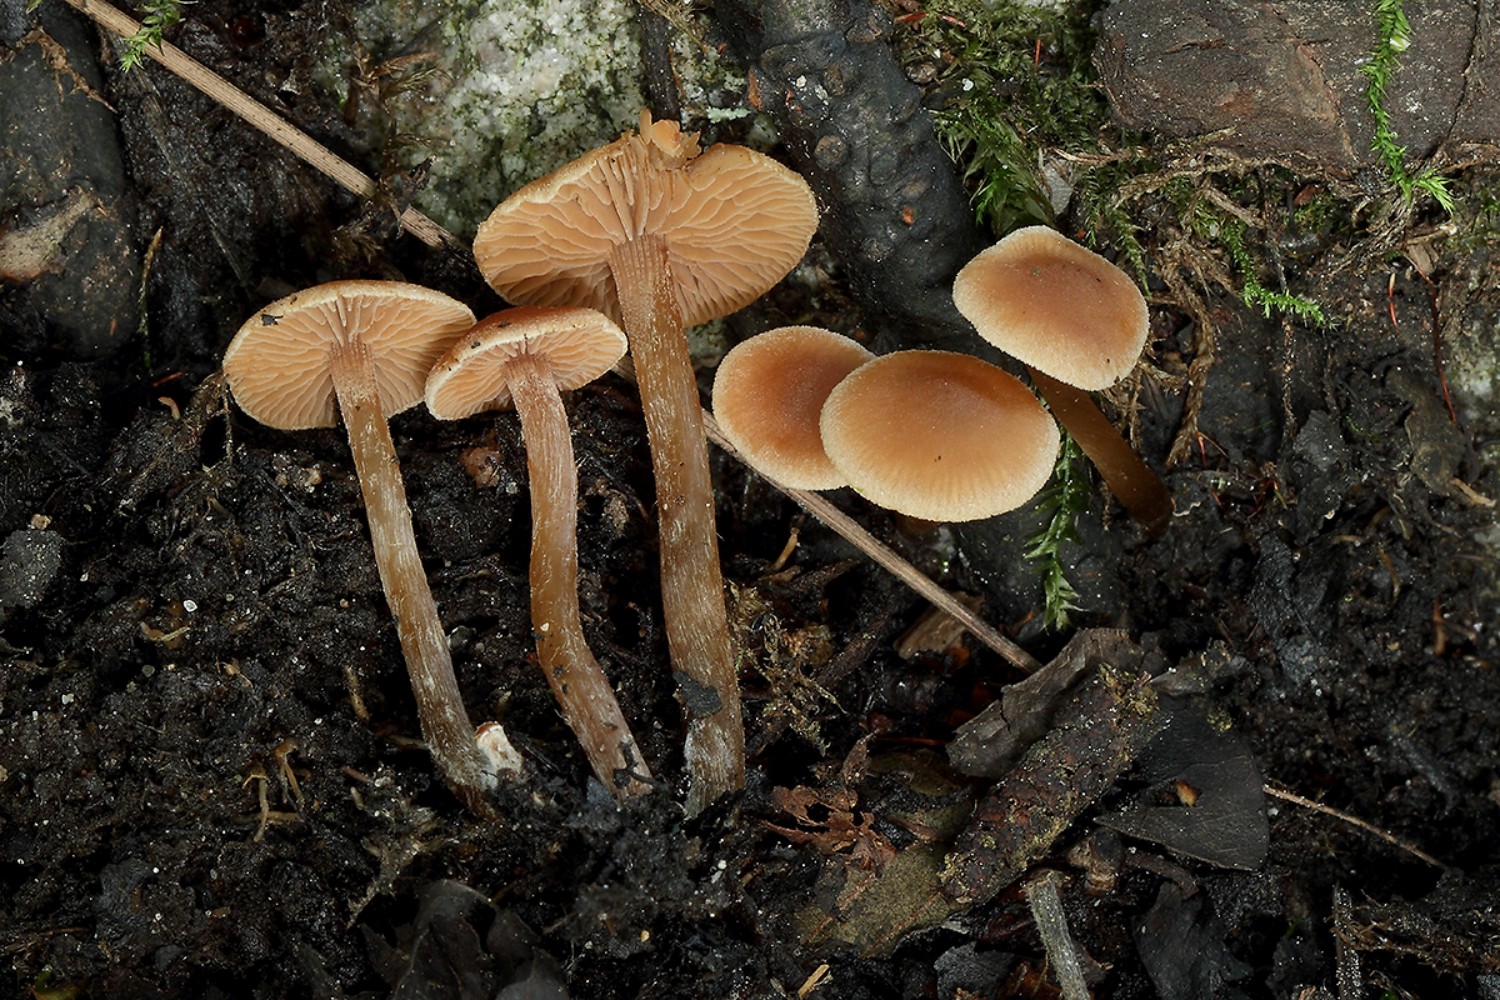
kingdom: Fungi
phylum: Basidiomycota
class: Agaricomycetes
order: Agaricales
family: Hymenogastraceae
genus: Naucoria
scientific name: Naucoria subconspersa
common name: filtet knaphat
